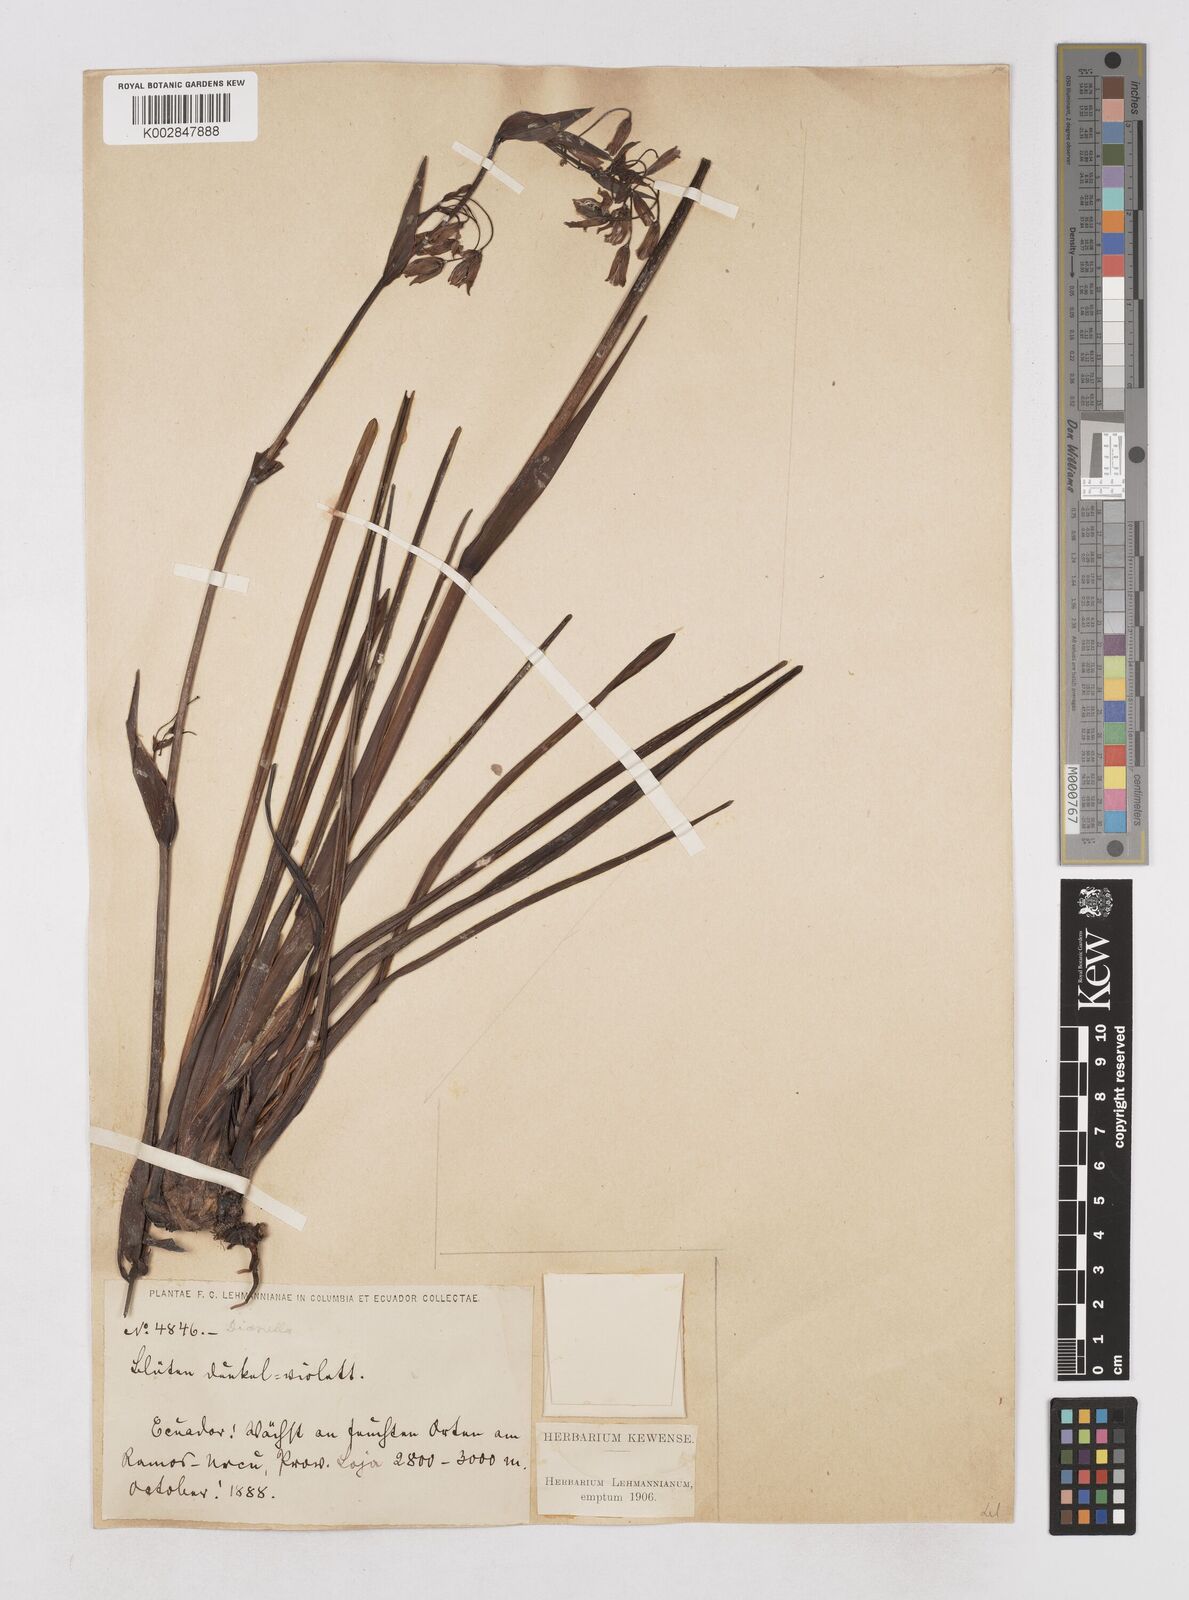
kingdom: Plantae
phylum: Tracheophyta
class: Liliopsida
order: Asparagales
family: Asphodelaceae
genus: Excremis
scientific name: Excremis coarctata
